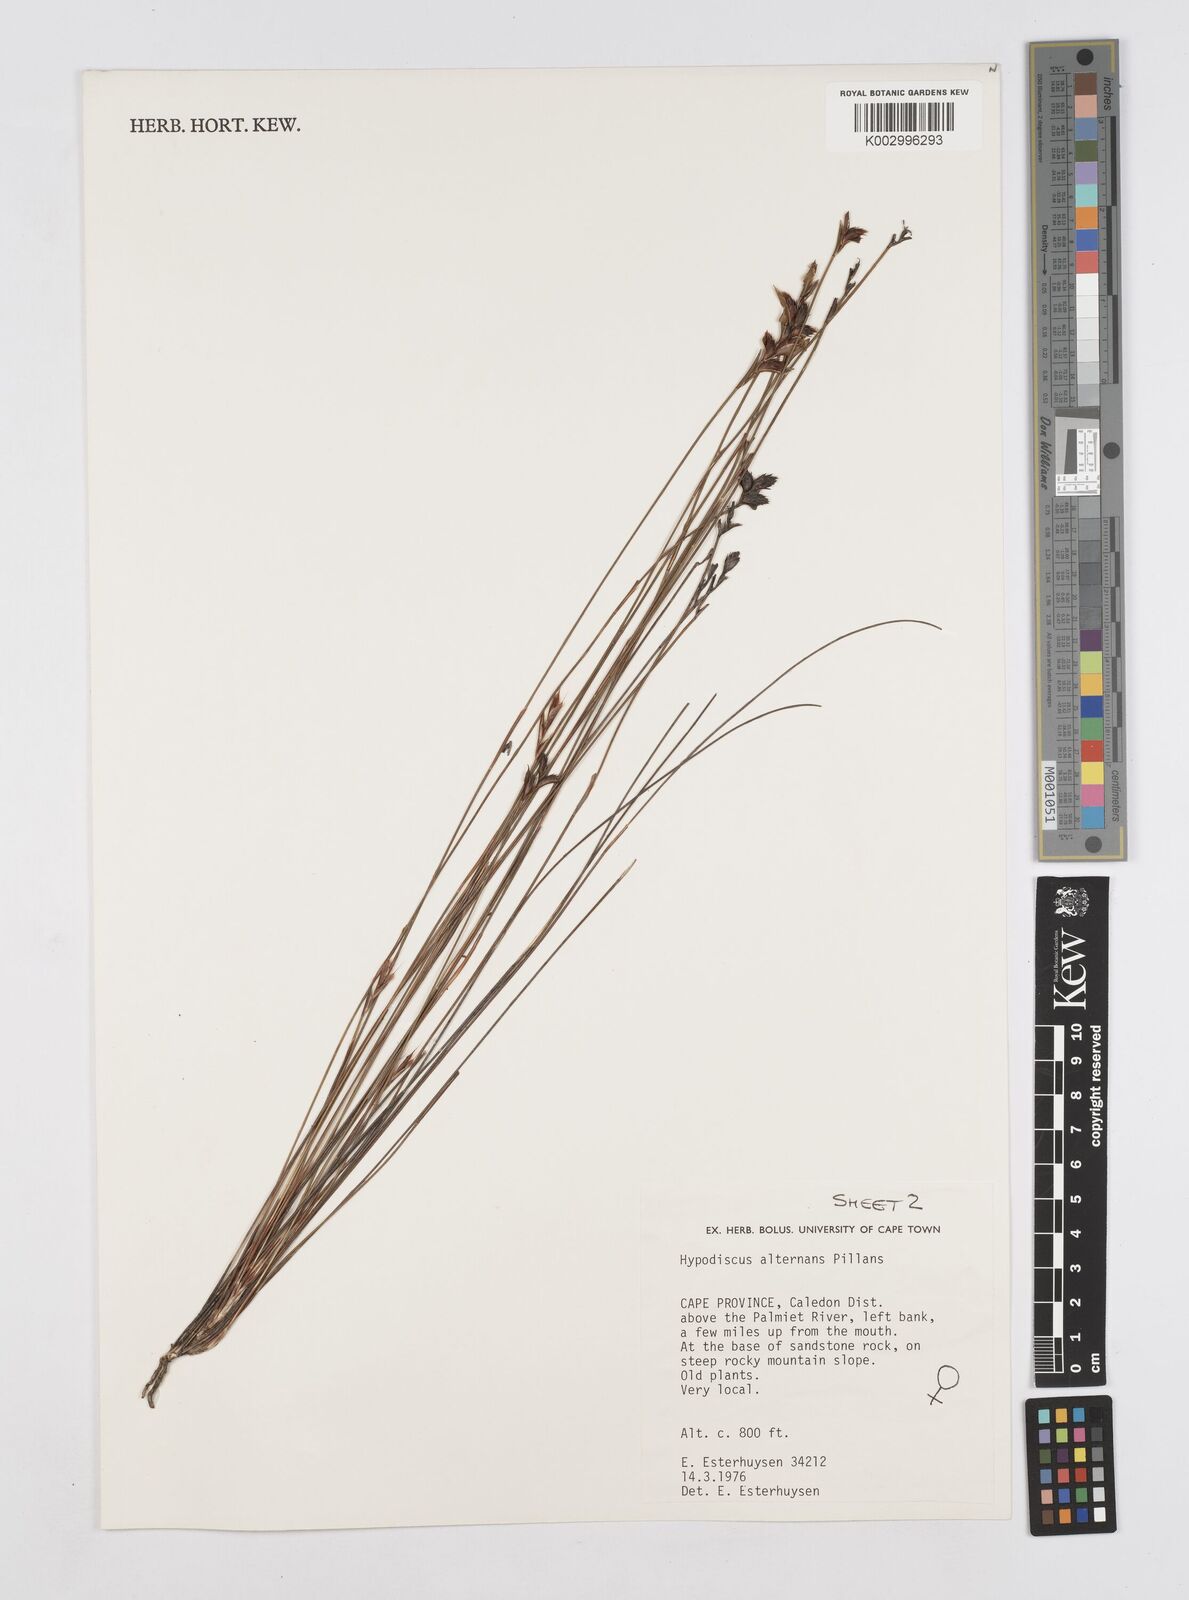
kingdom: Plantae
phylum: Tracheophyta
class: Liliopsida
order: Poales
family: Restionaceae
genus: Hypodiscus
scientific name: Hypodiscus alternans
